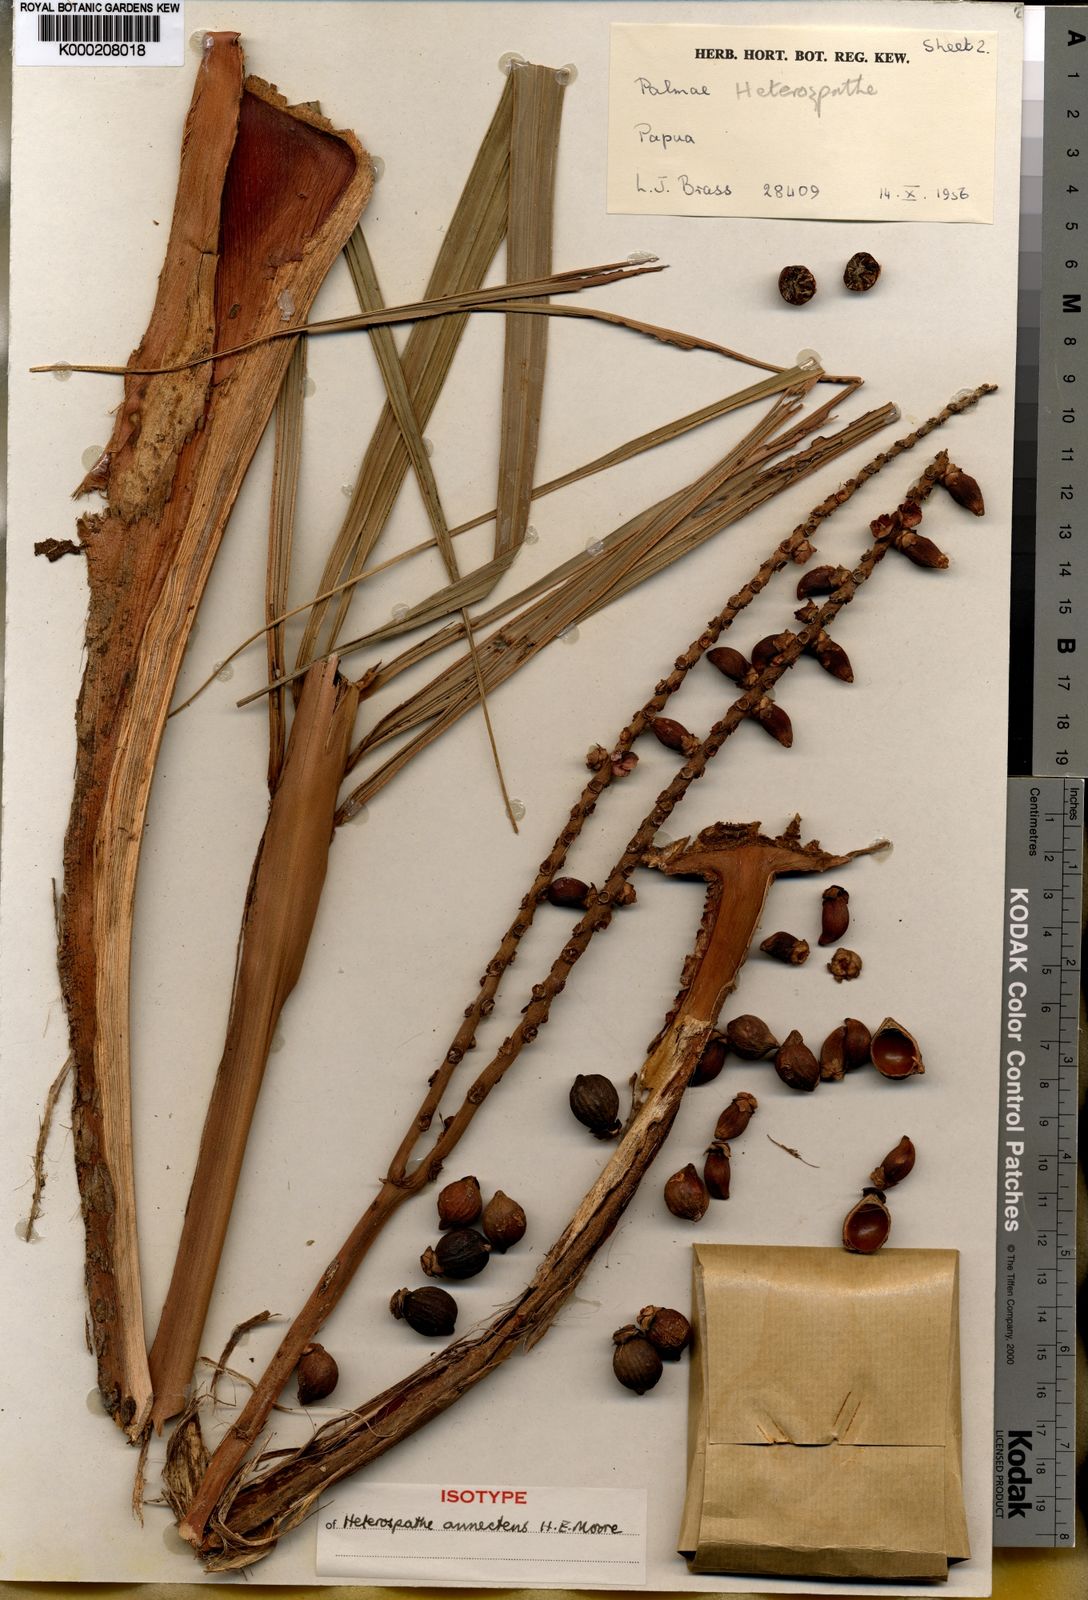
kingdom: Plantae
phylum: Tracheophyta
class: Liliopsida
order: Arecales
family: Arecaceae
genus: Heterospathe
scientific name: Heterospathe annectens
